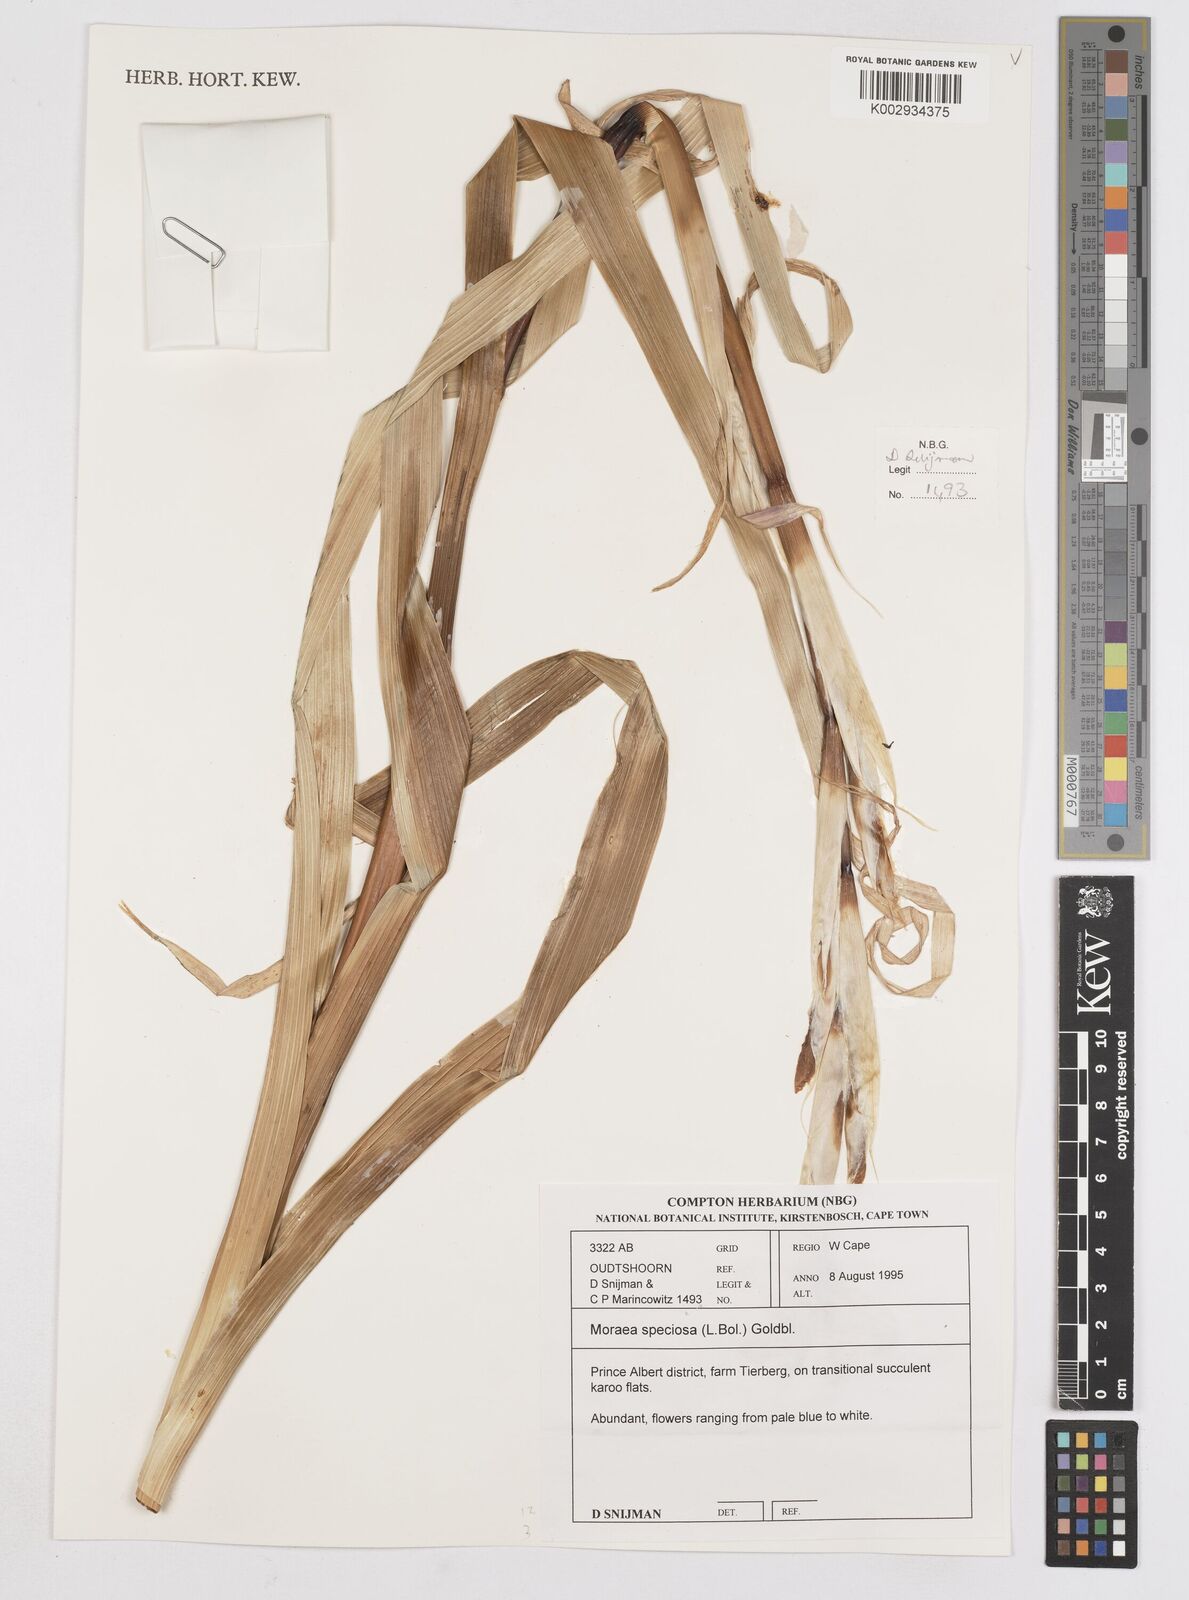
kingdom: Plantae
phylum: Tracheophyta
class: Liliopsida
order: Asparagales
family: Iridaceae
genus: Moraea
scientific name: Moraea speciosa
